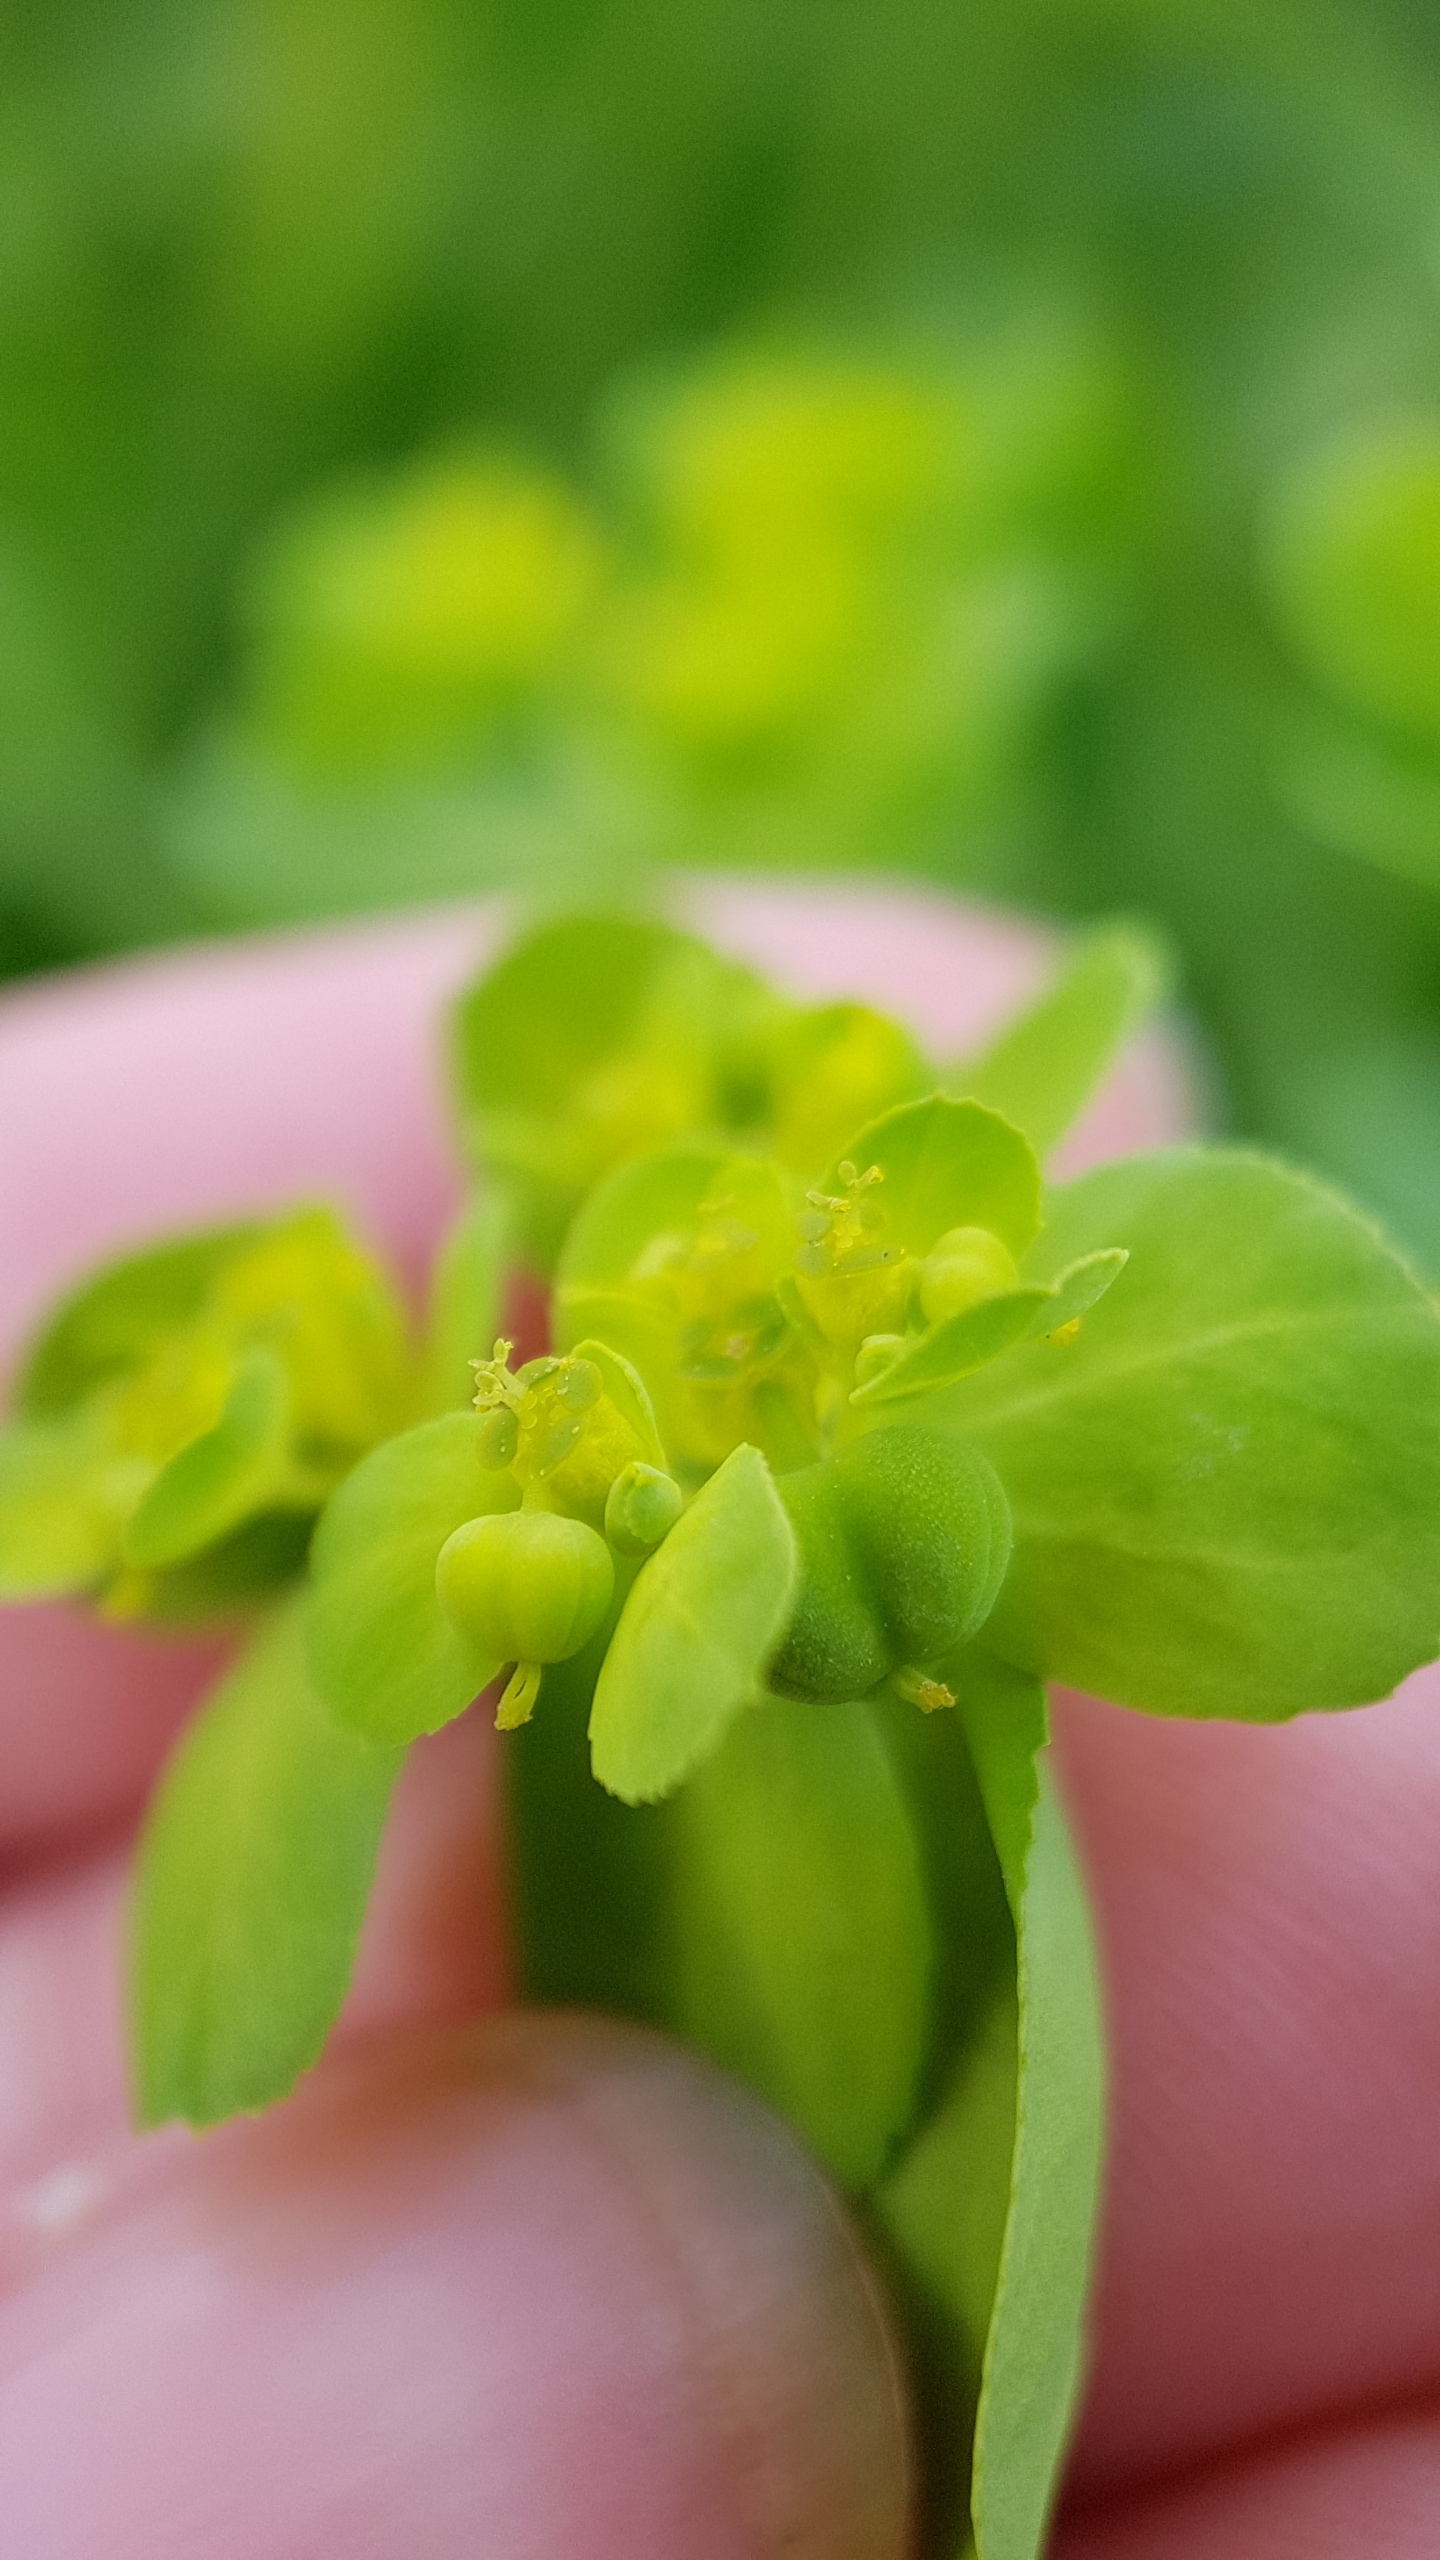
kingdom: Plantae
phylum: Tracheophyta
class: Magnoliopsida
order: Malpighiales
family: Euphorbiaceae
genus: Euphorbia
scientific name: Euphorbia helioscopia
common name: Skærm-vortemælk
